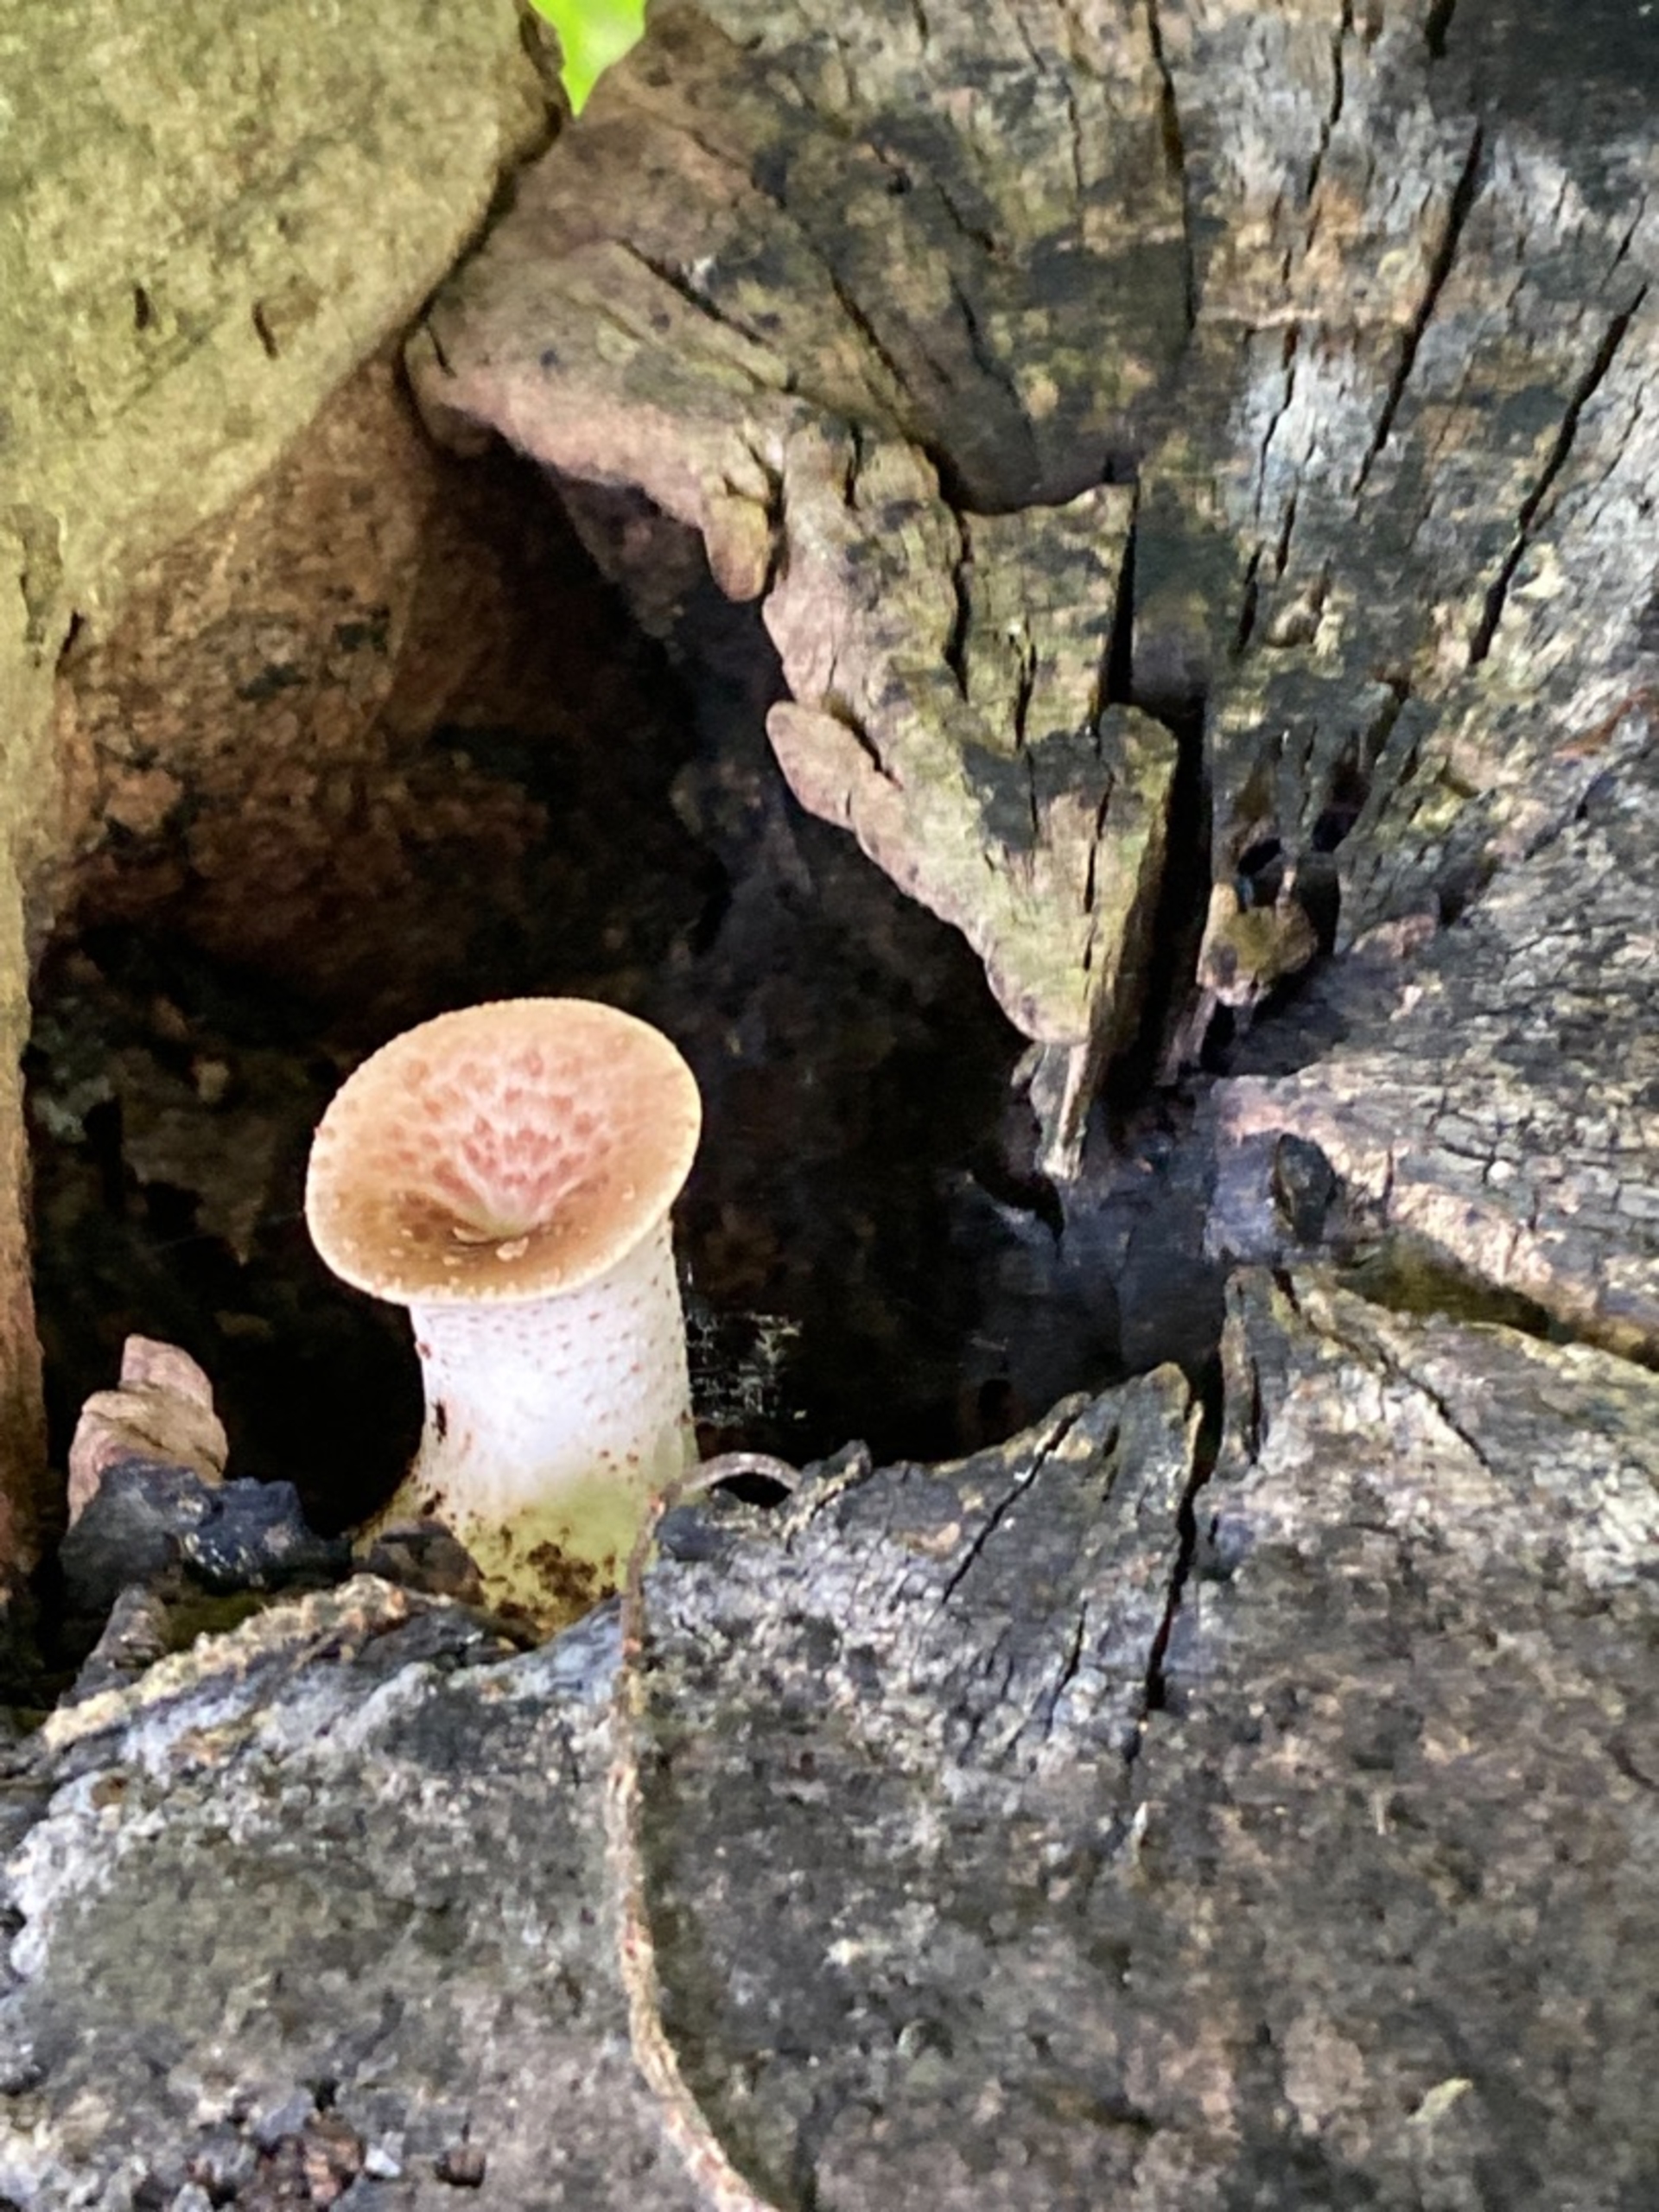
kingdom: Fungi
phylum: Basidiomycota
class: Agaricomycetes
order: Polyporales
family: Polyporaceae
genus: Cerioporus
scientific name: Cerioporus squamosus
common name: Skællet stilkporesvamp
